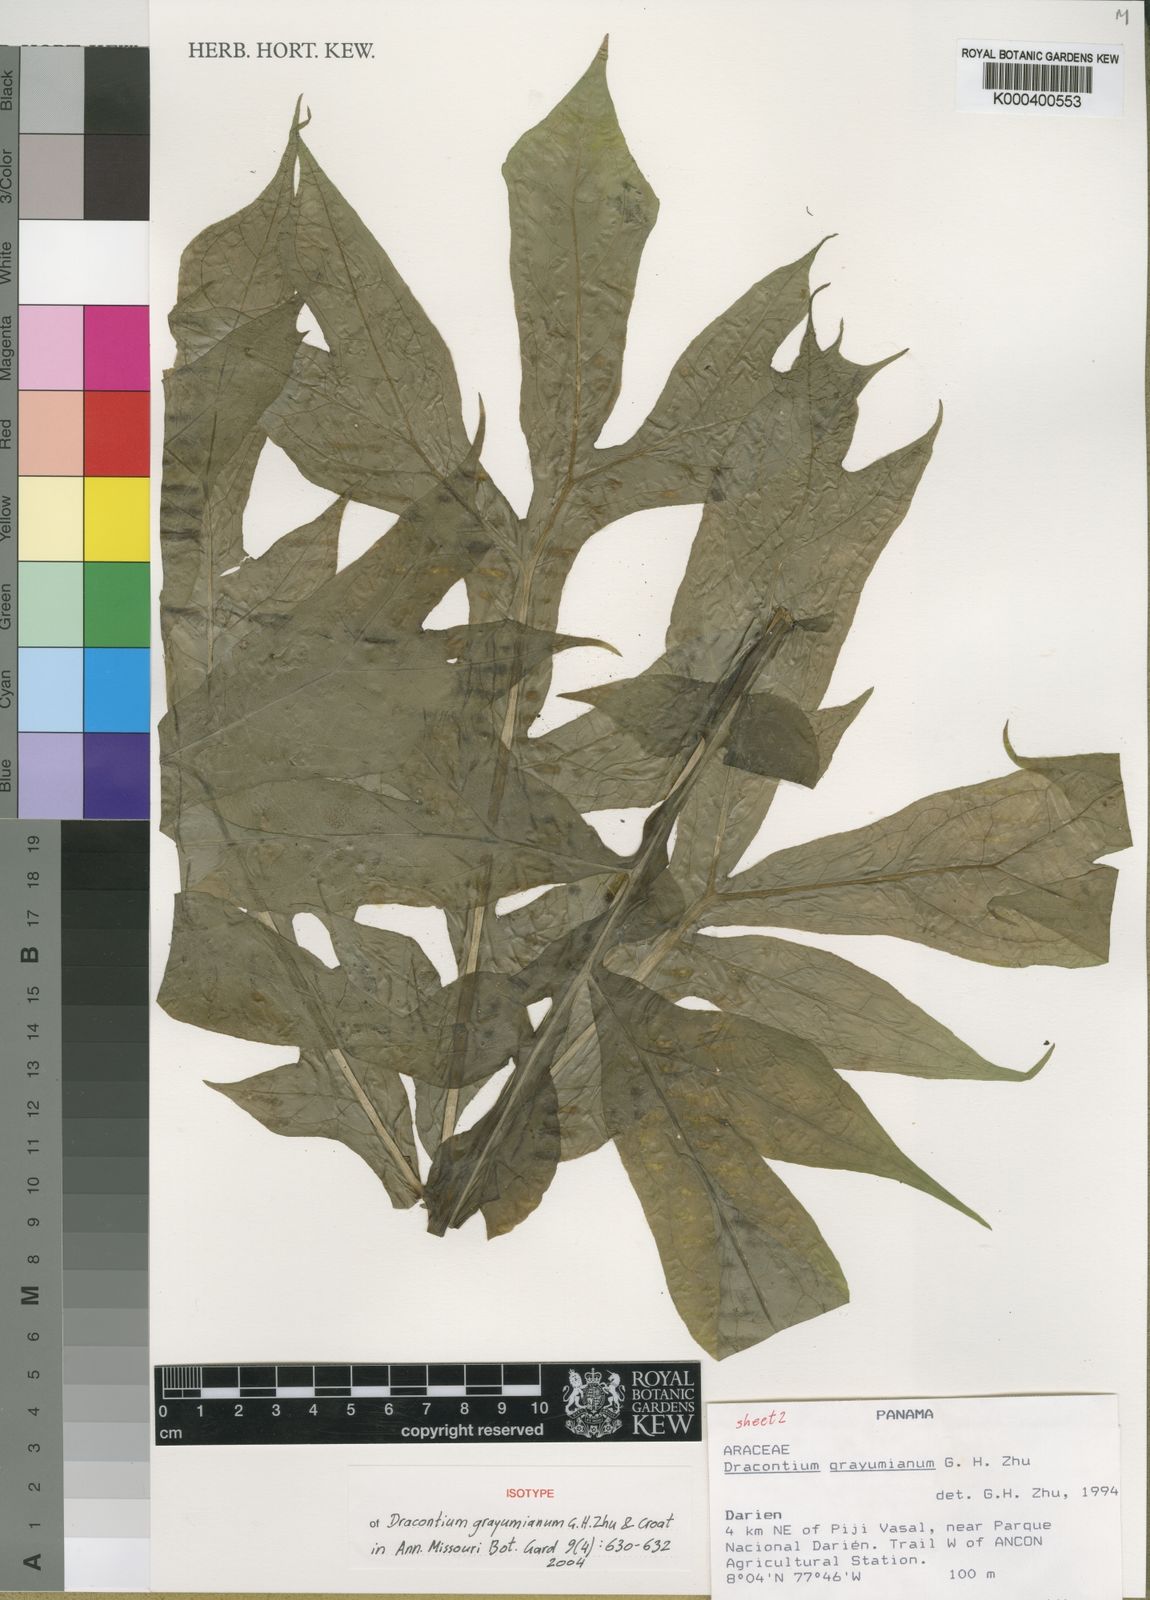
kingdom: Plantae
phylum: Tracheophyta
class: Liliopsida
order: Alismatales
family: Araceae
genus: Dracontium
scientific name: Dracontium grayumianum
